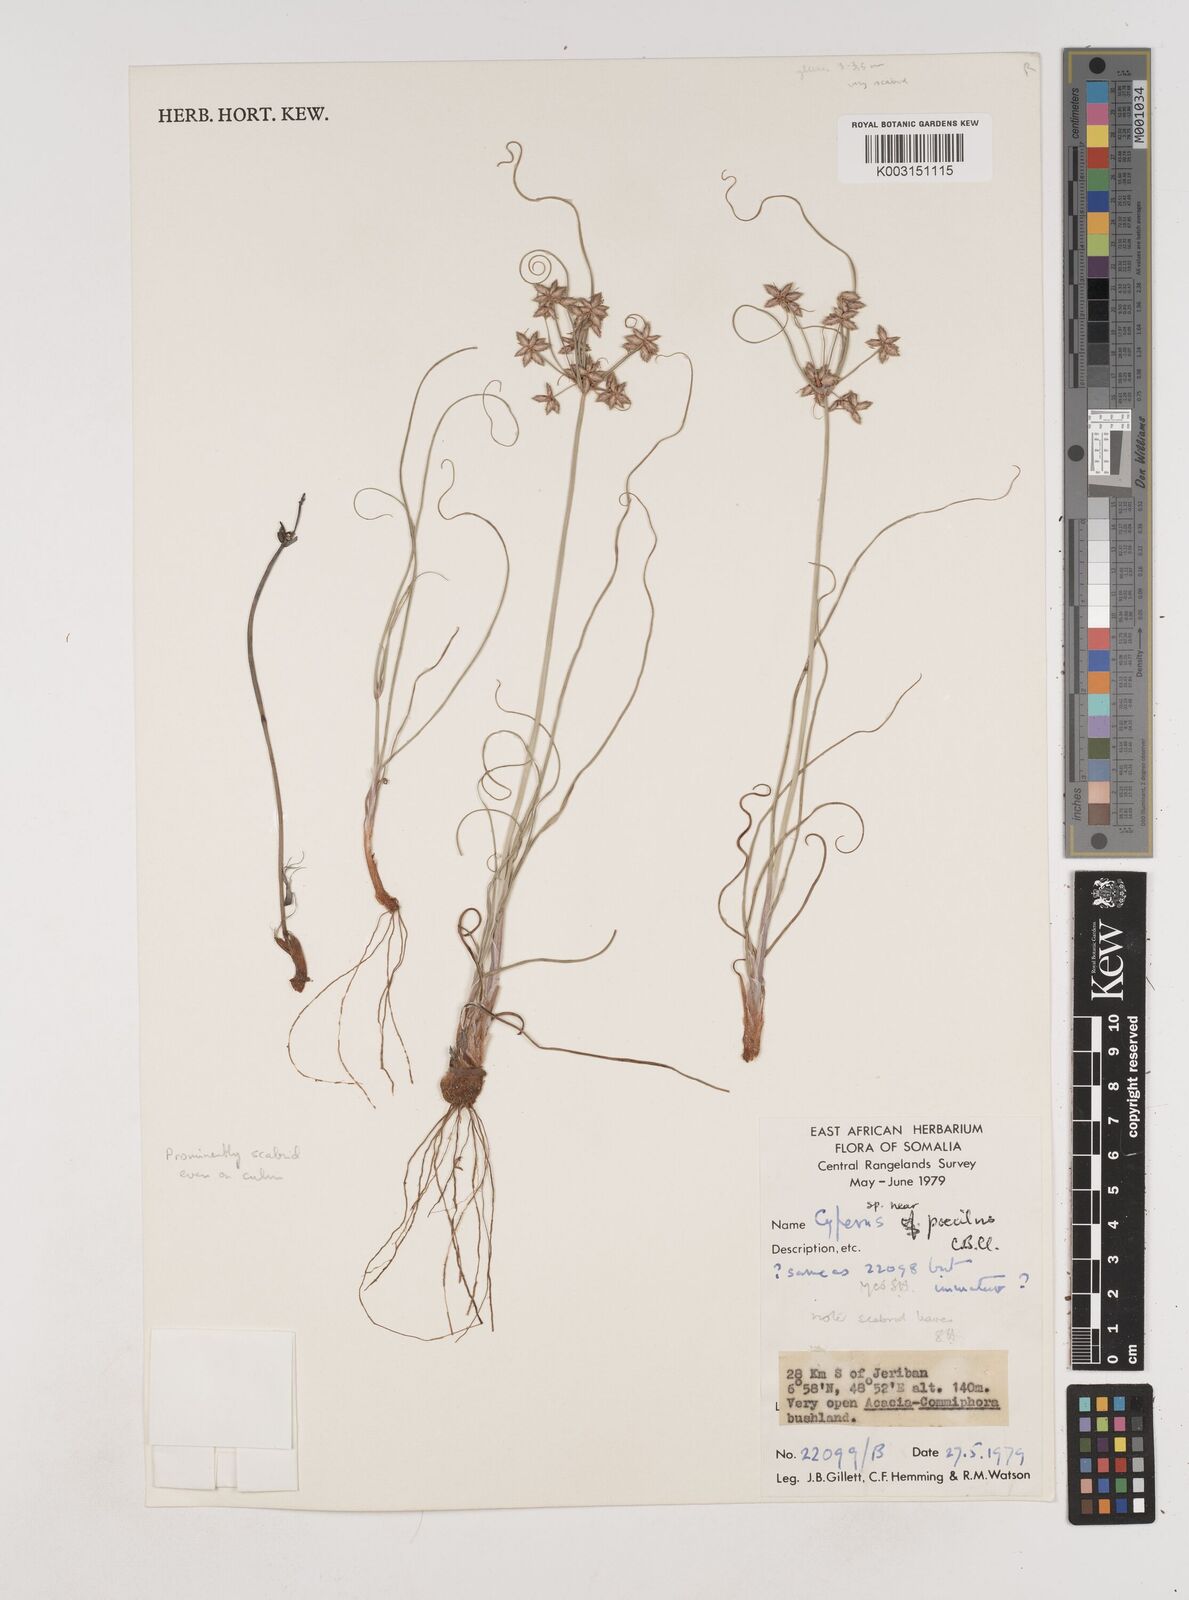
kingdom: Plantae
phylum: Tracheophyta
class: Liliopsida
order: Poales
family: Cyperaceae
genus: Cyperus
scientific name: Cyperus poecilus
